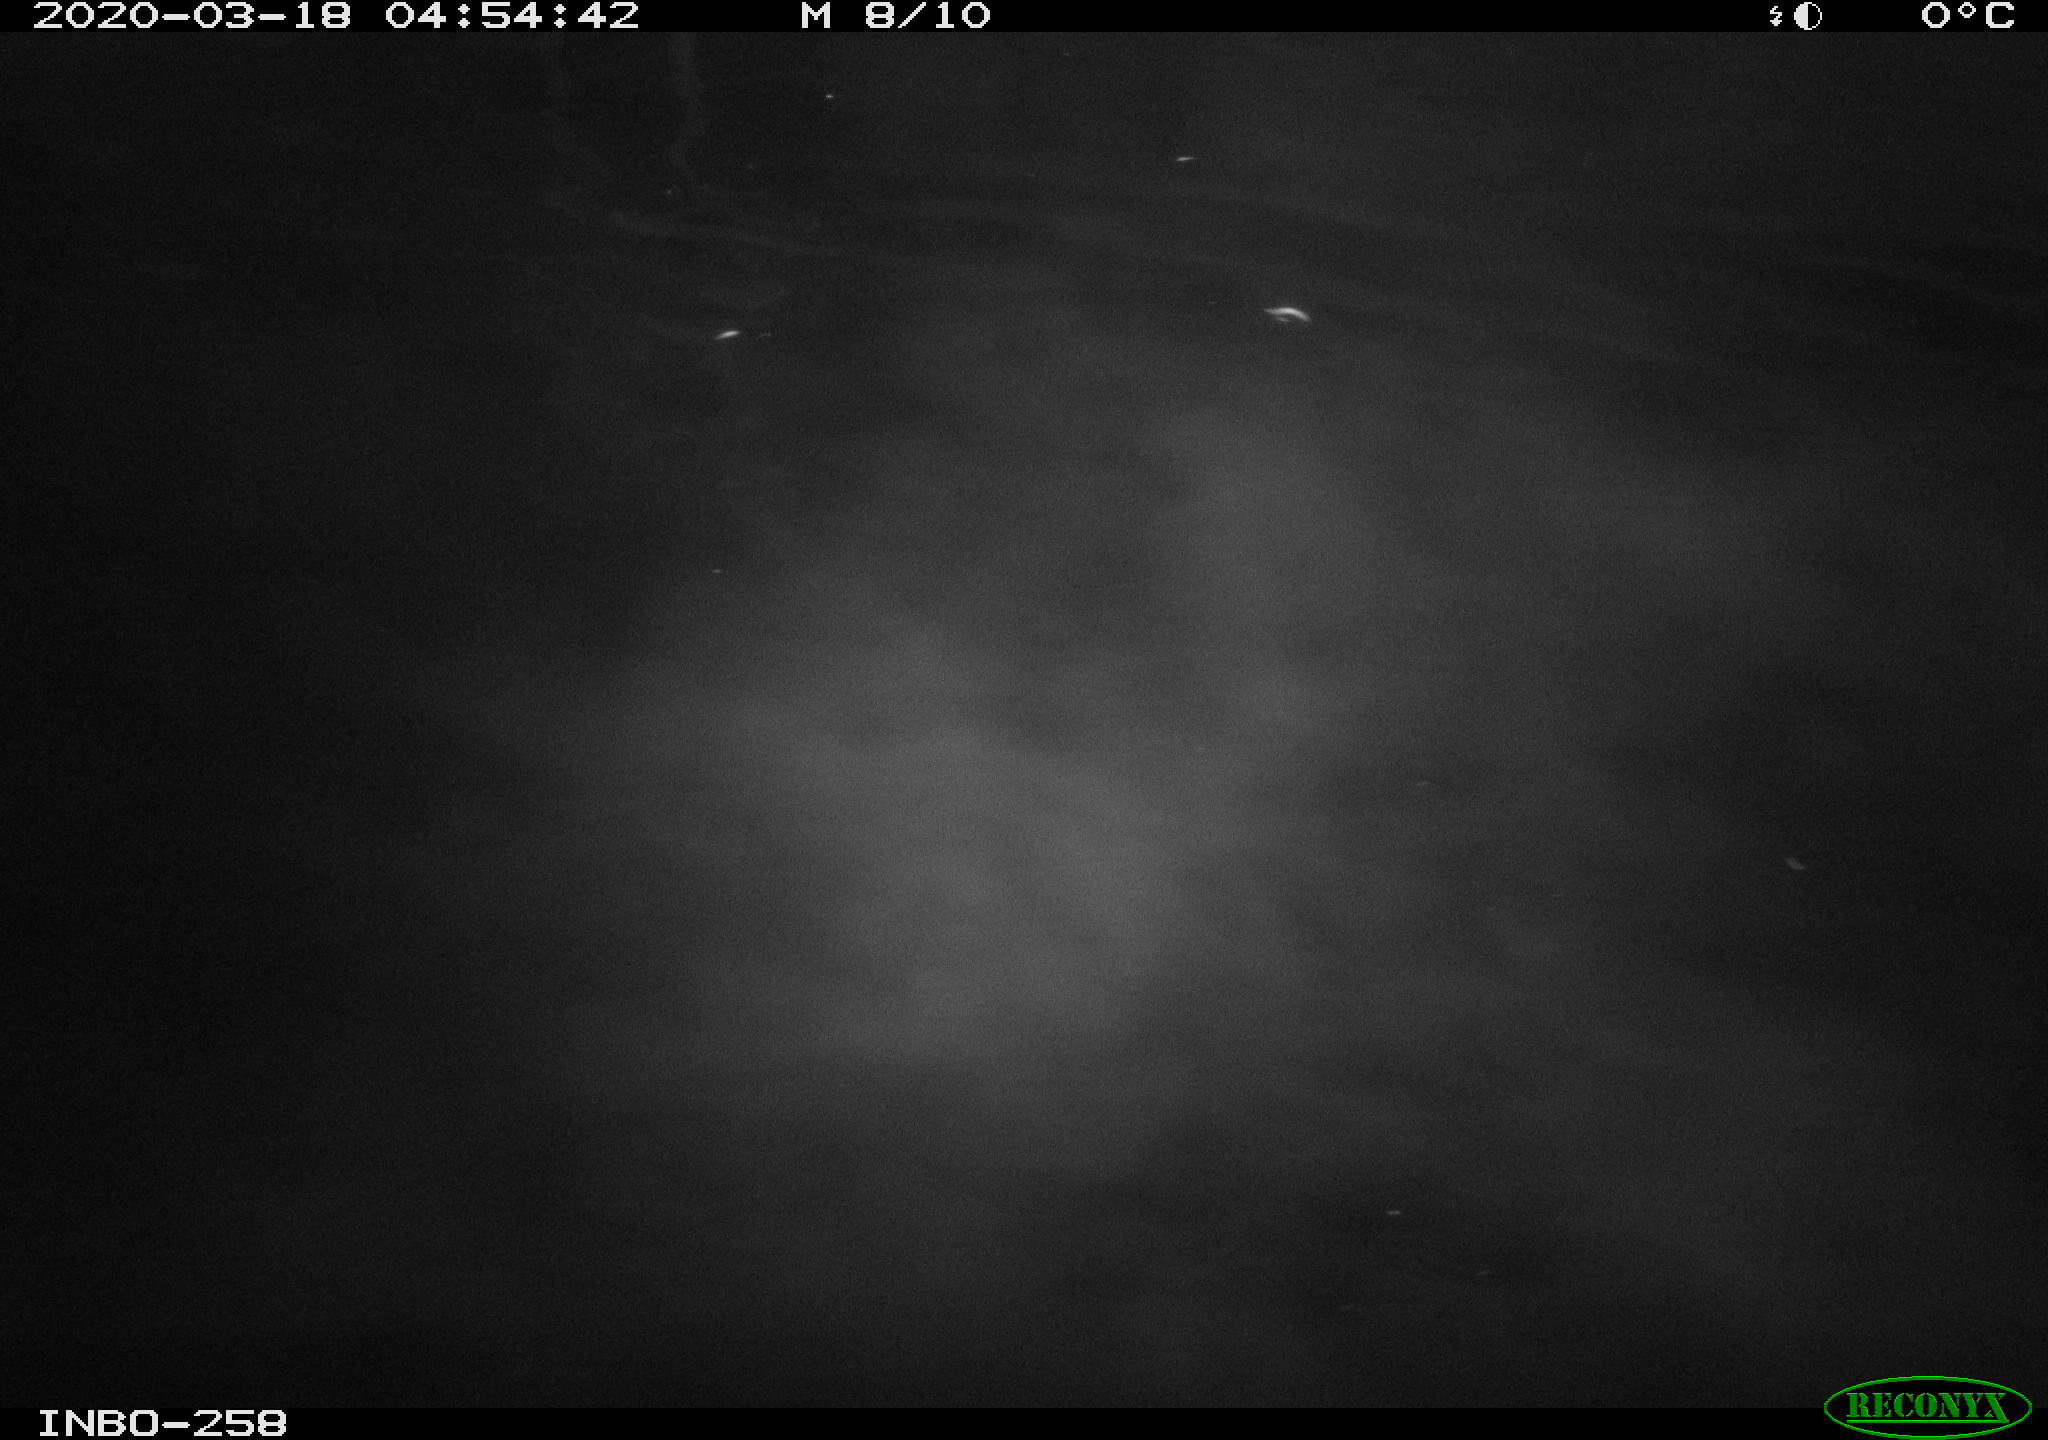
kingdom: Animalia
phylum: Chordata
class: Aves
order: Anseriformes
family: Anatidae
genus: Anas
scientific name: Anas platyrhynchos
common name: Mallard
